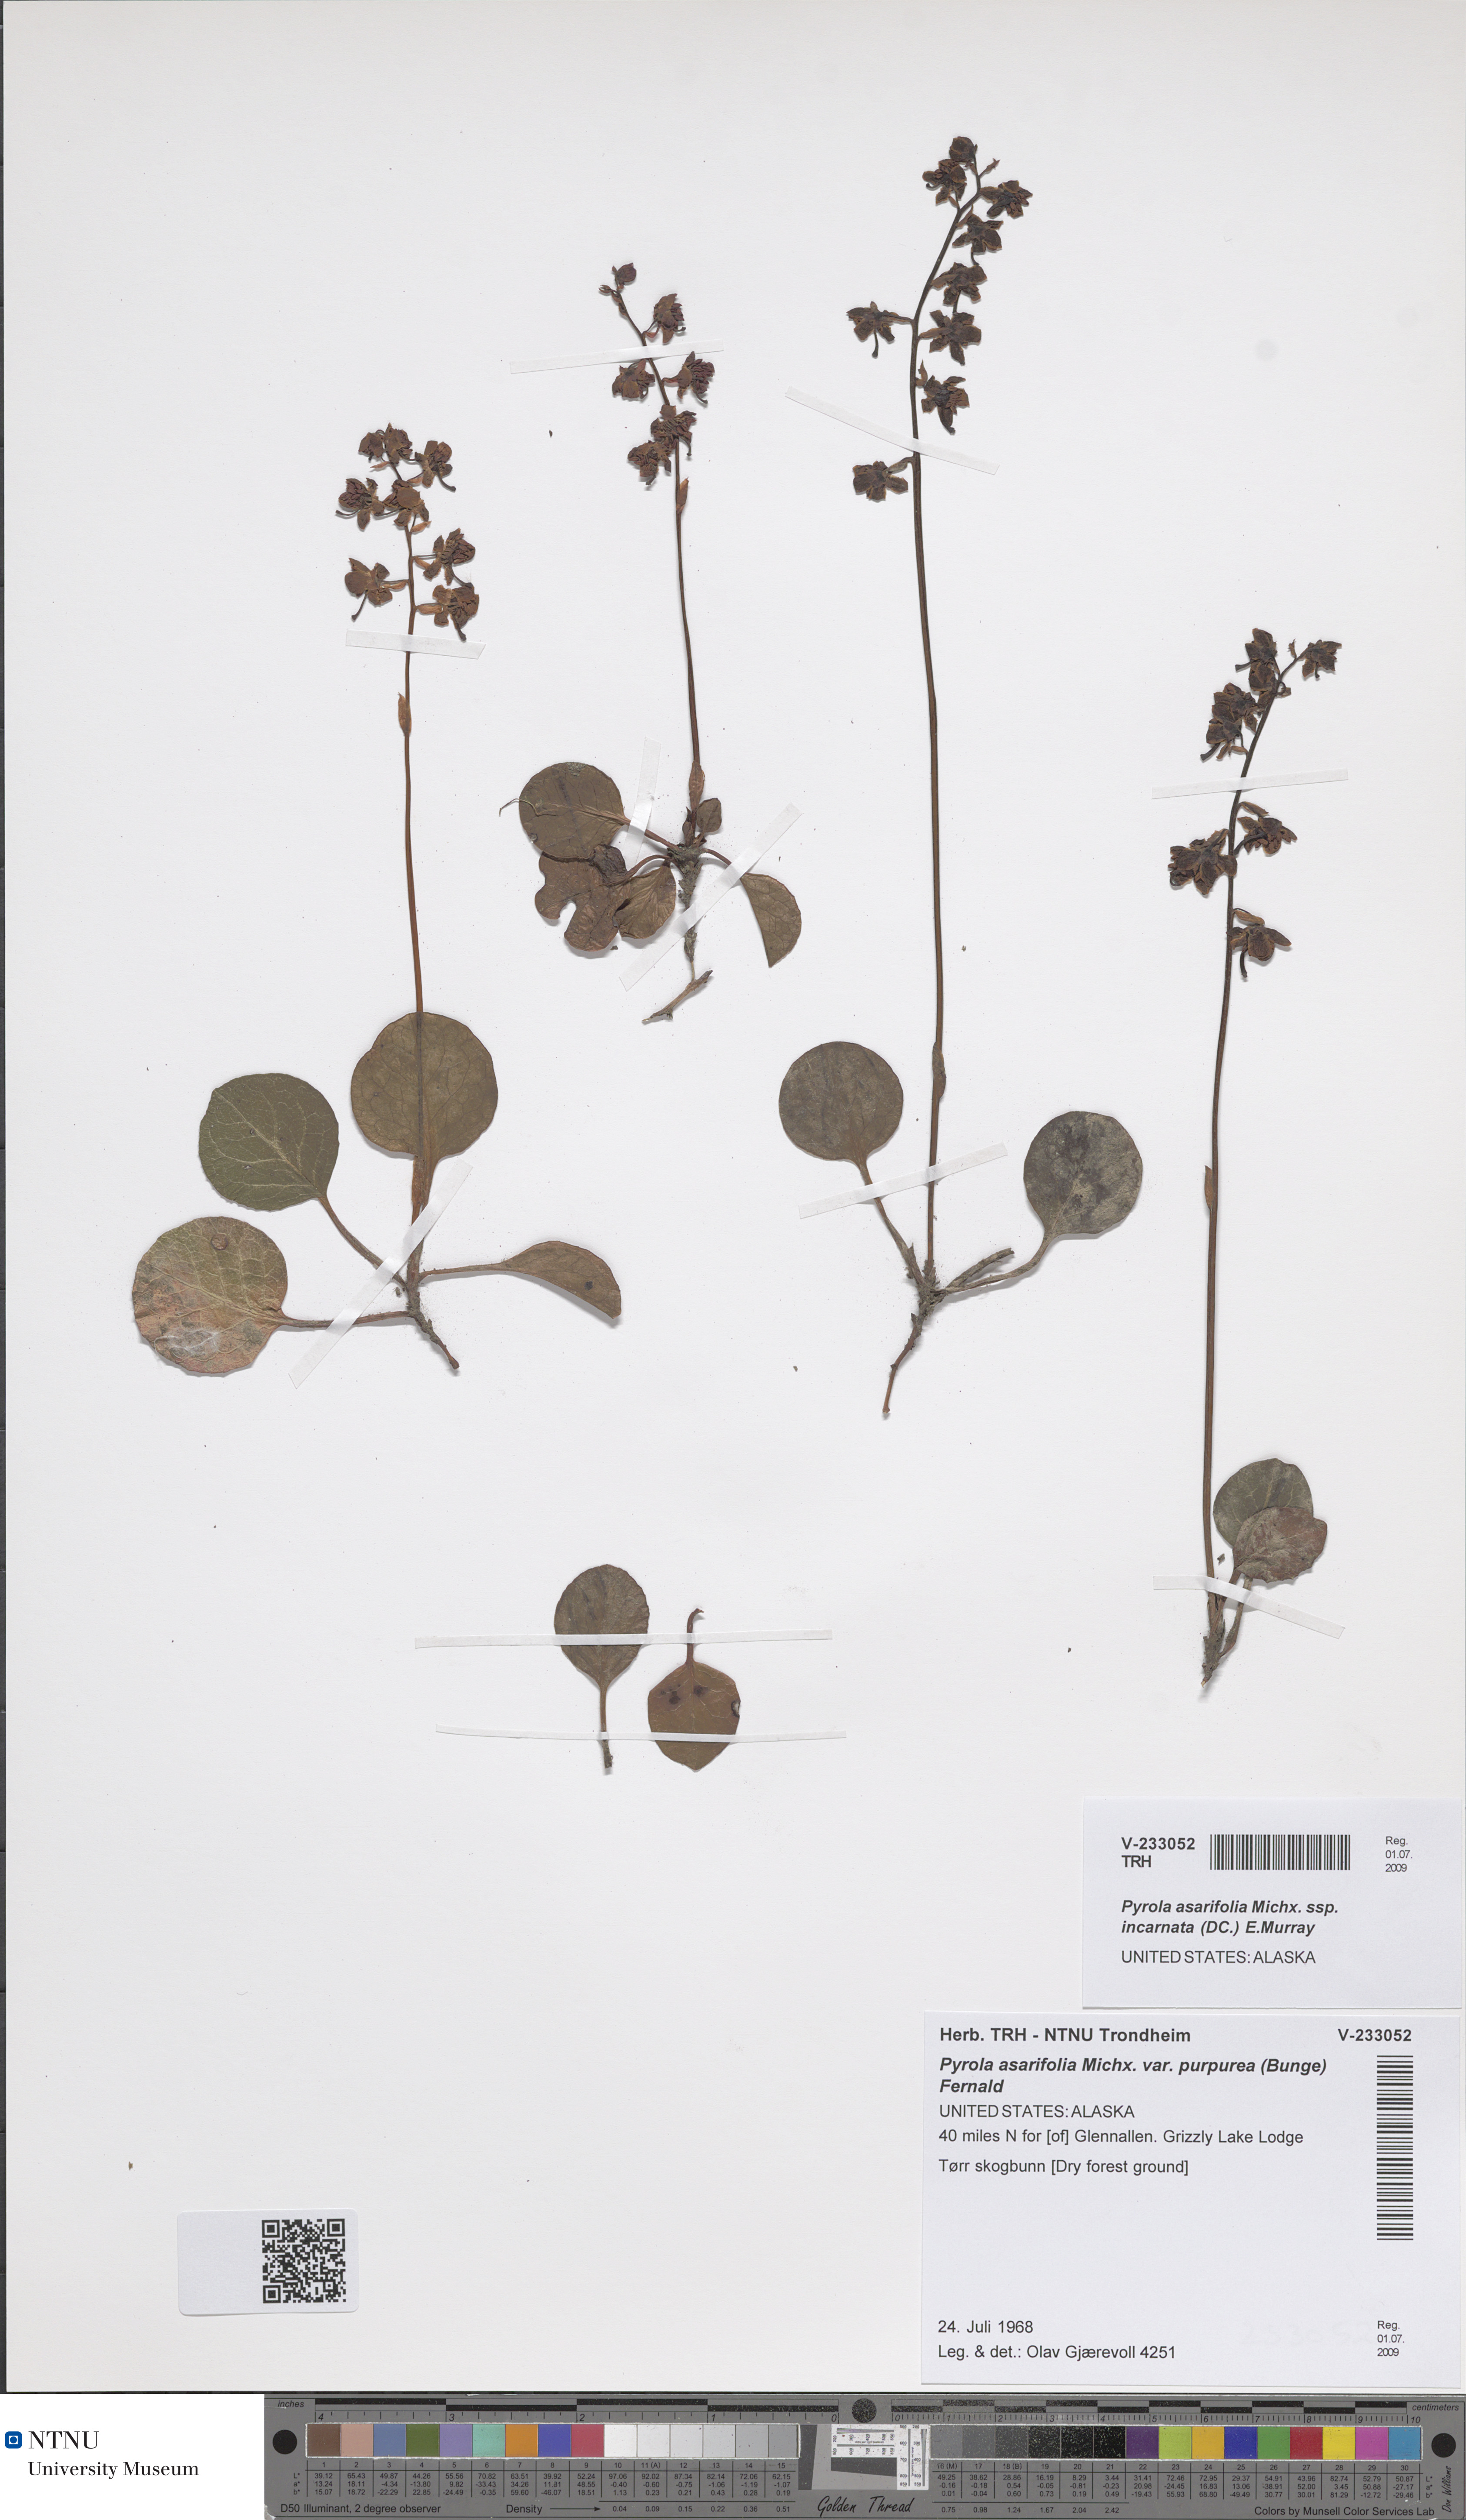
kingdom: Plantae
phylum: Tracheophyta
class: Magnoliopsida
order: Ericales
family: Ericaceae
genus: Pyrola
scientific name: Pyrola asarifolia
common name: Bog wintergreen
